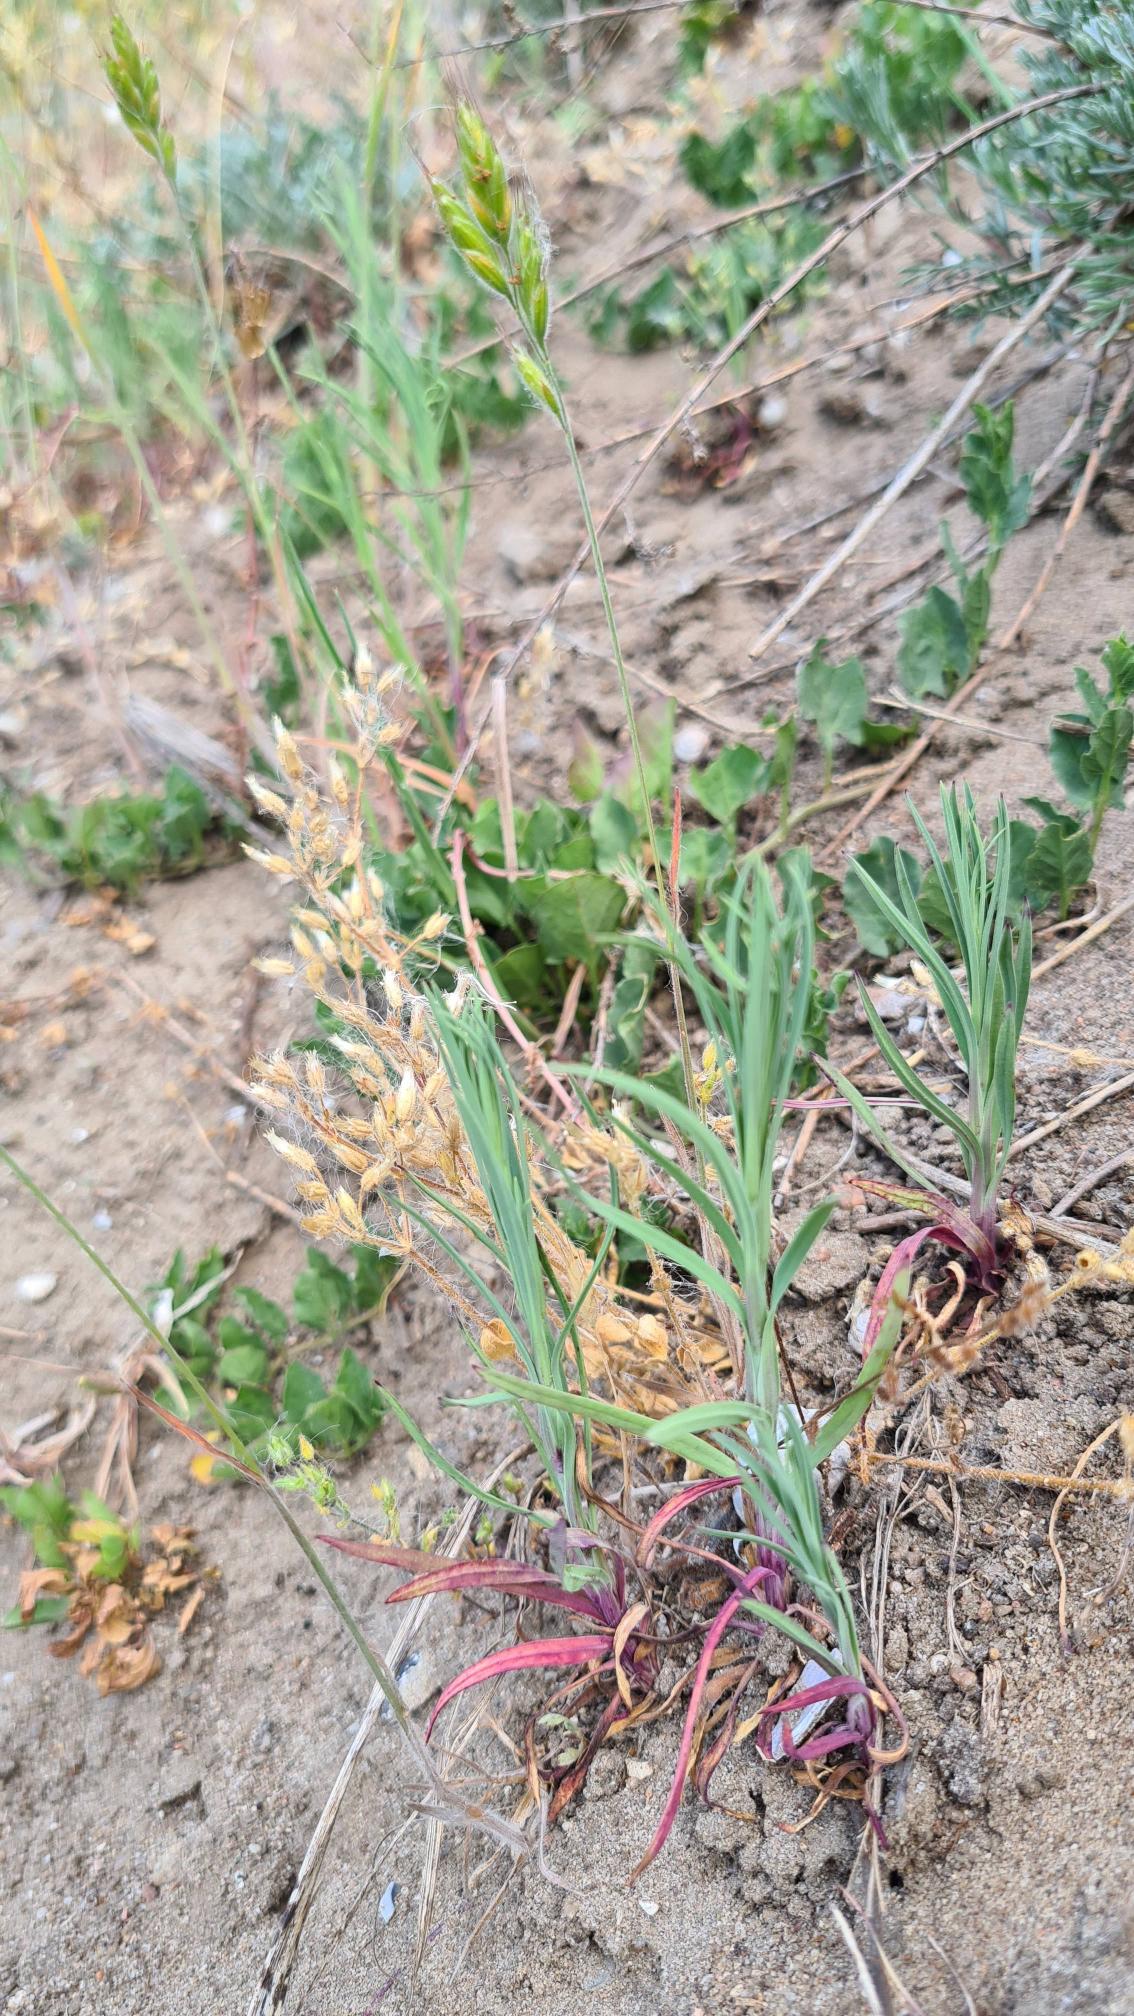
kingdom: Plantae
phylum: Tracheophyta
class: Magnoliopsida
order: Caryophyllales
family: Caryophyllaceae
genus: Petrorhagia
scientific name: Petrorhagia prolifera
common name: Knopnellike
